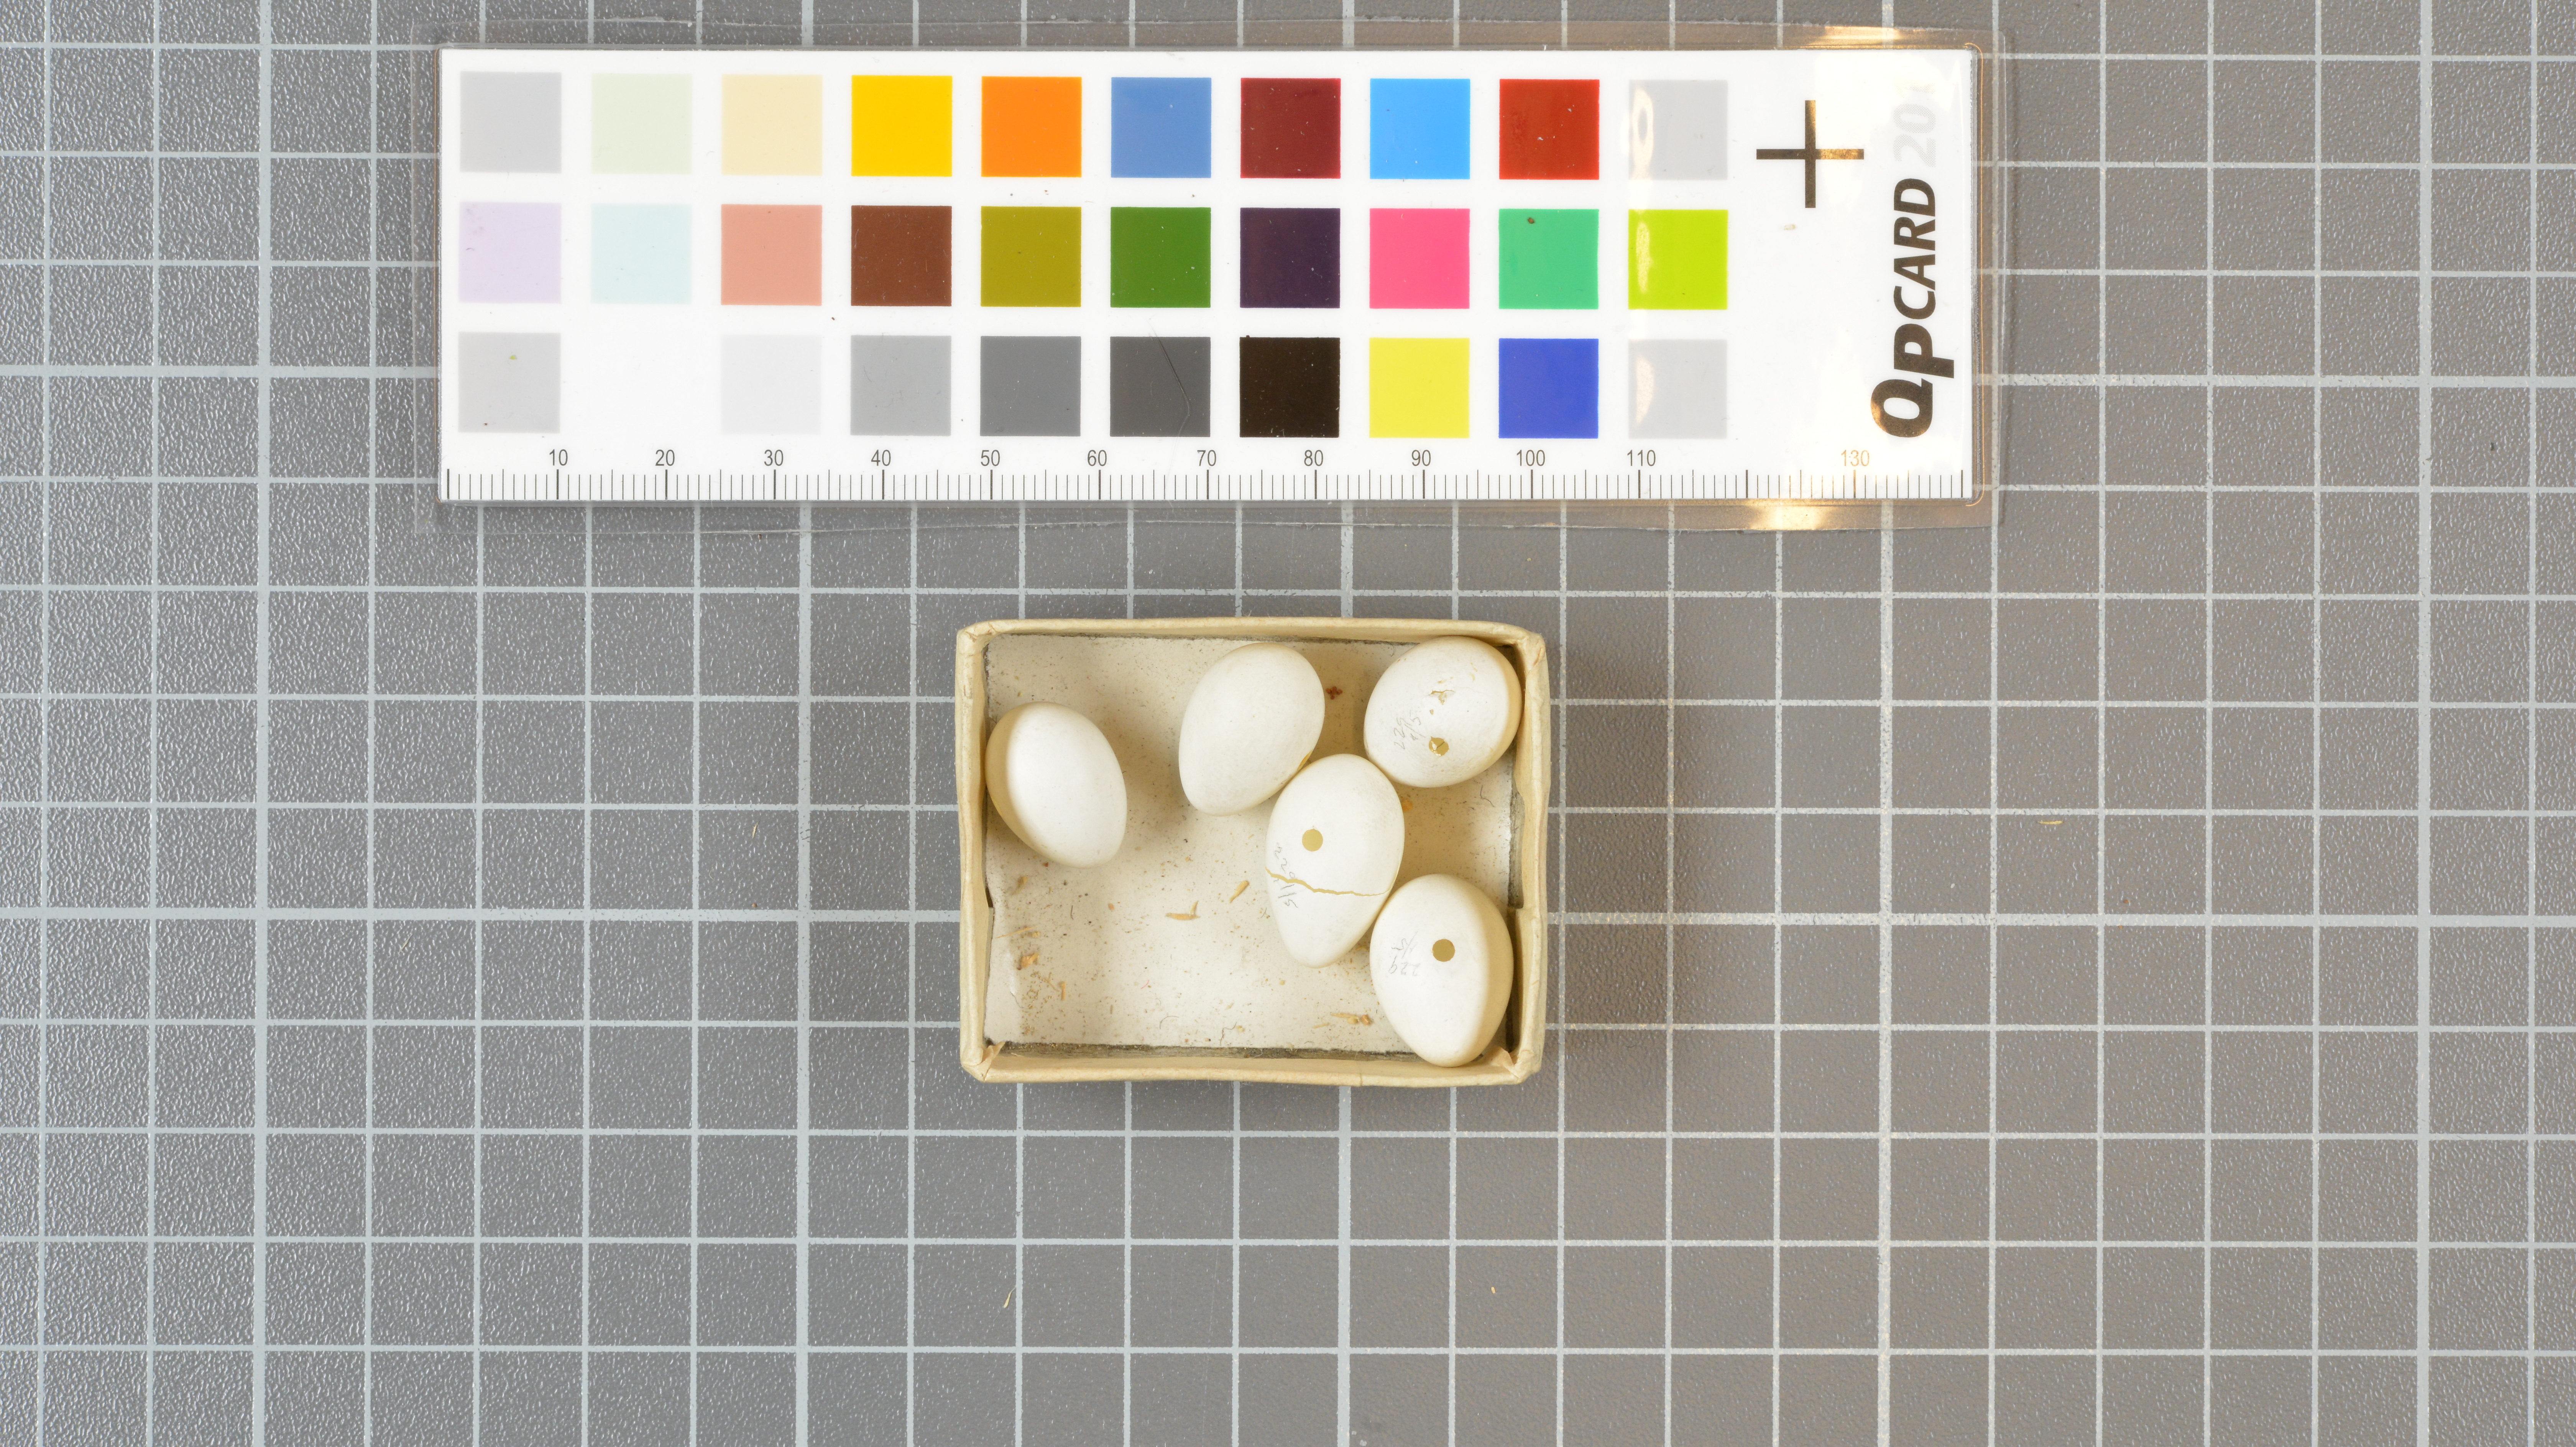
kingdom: Animalia
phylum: Chordata
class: Aves
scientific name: Aves
